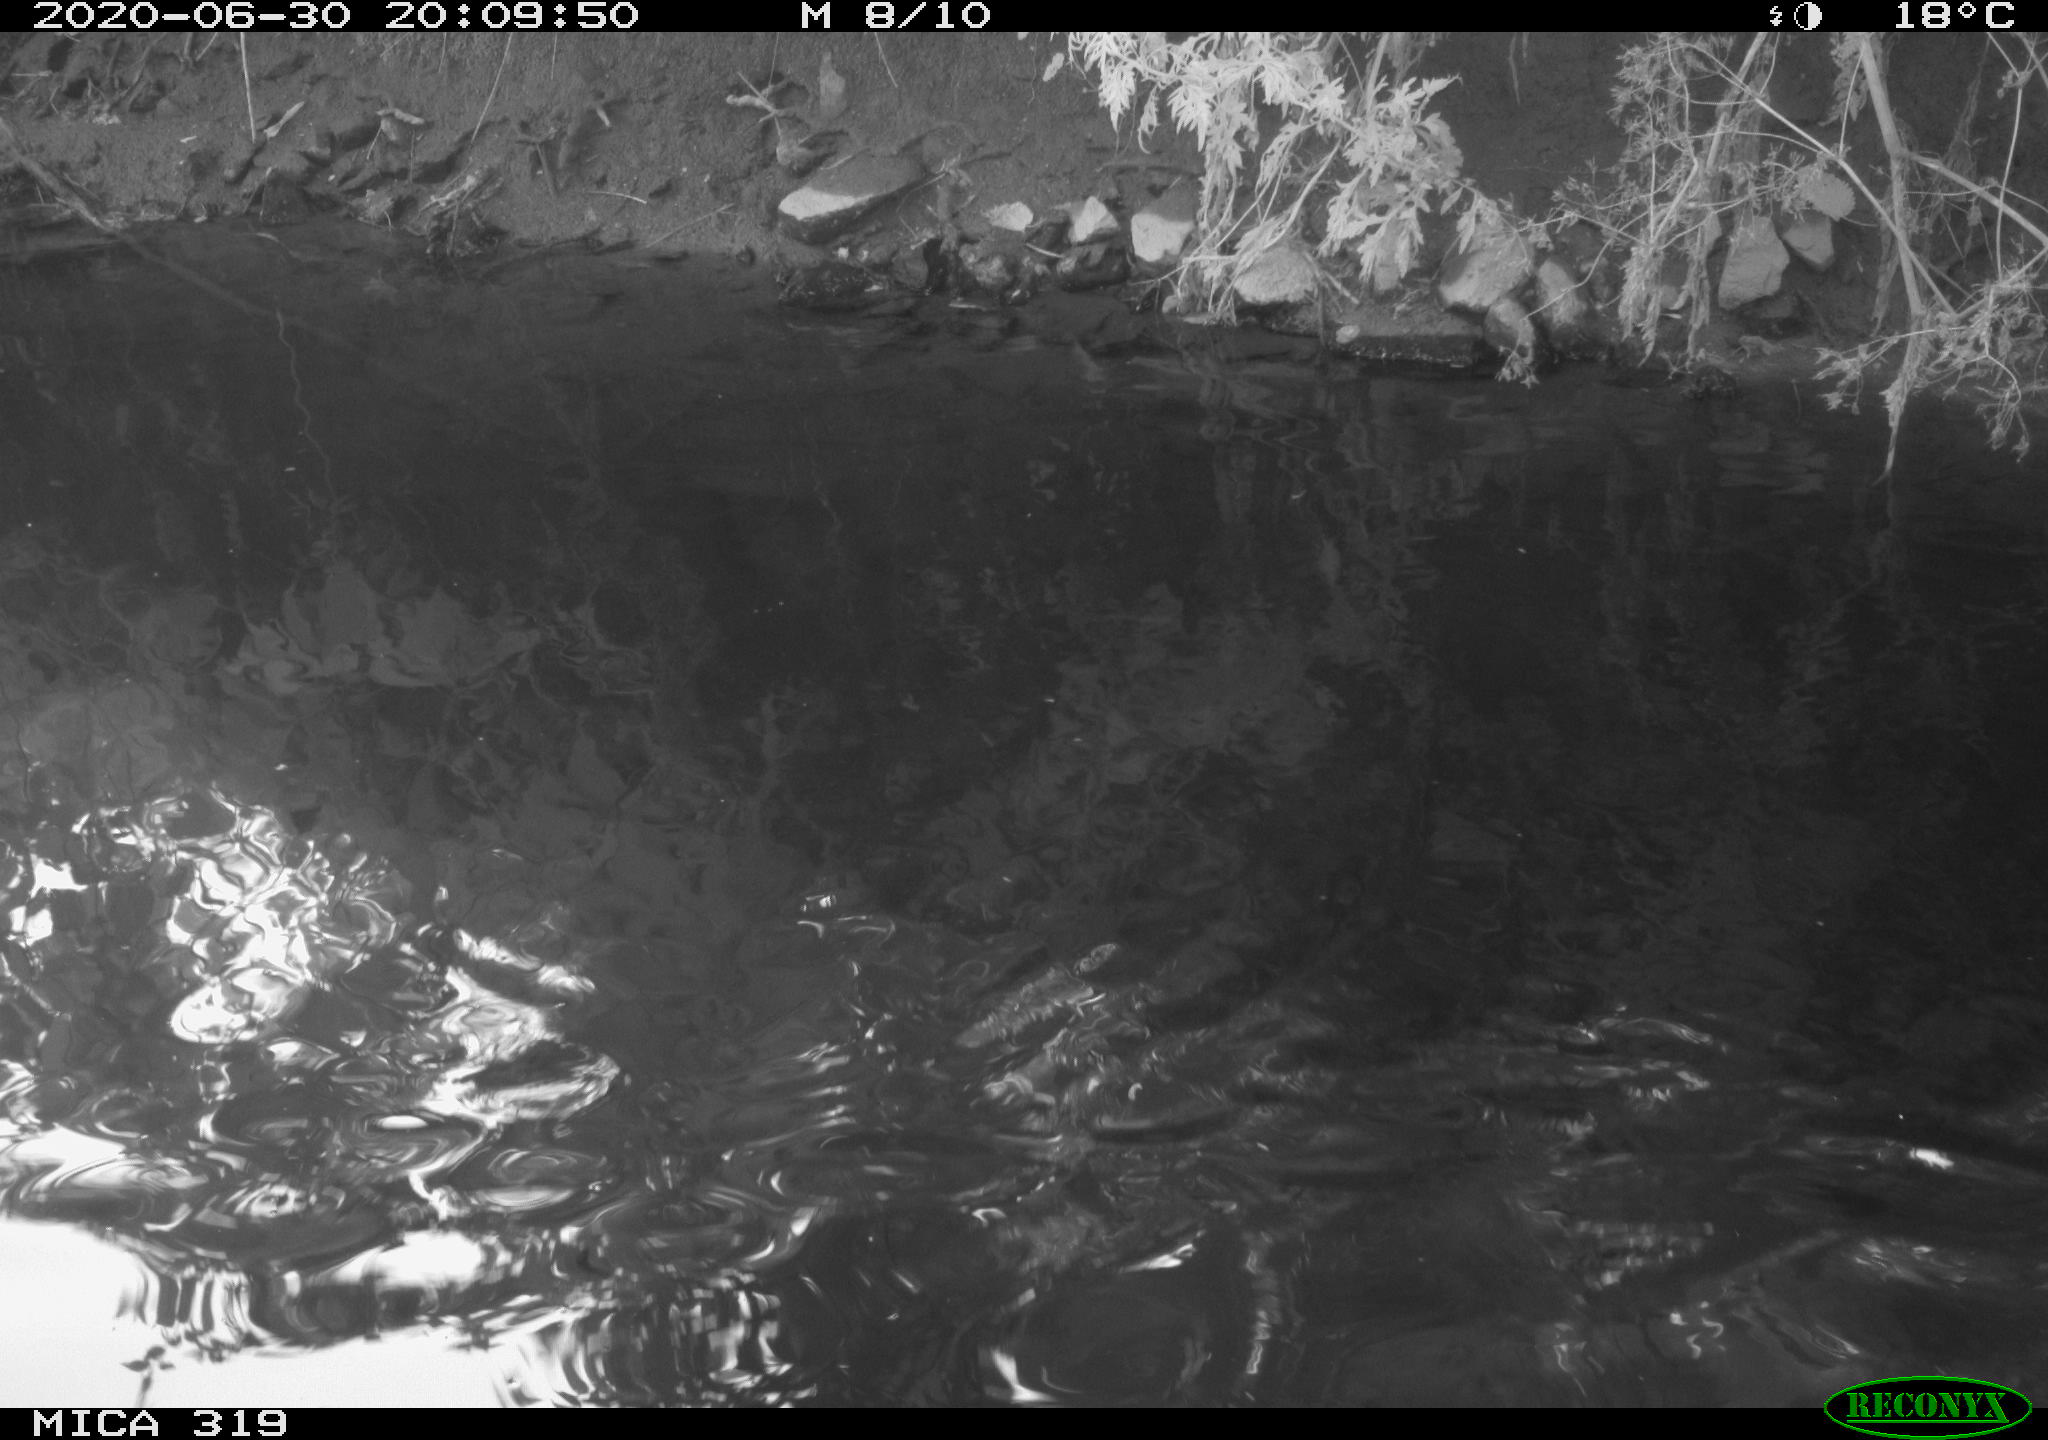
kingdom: Animalia
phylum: Chordata
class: Aves
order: Anseriformes
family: Anatidae
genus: Anas
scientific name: Anas platyrhynchos
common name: Mallard
